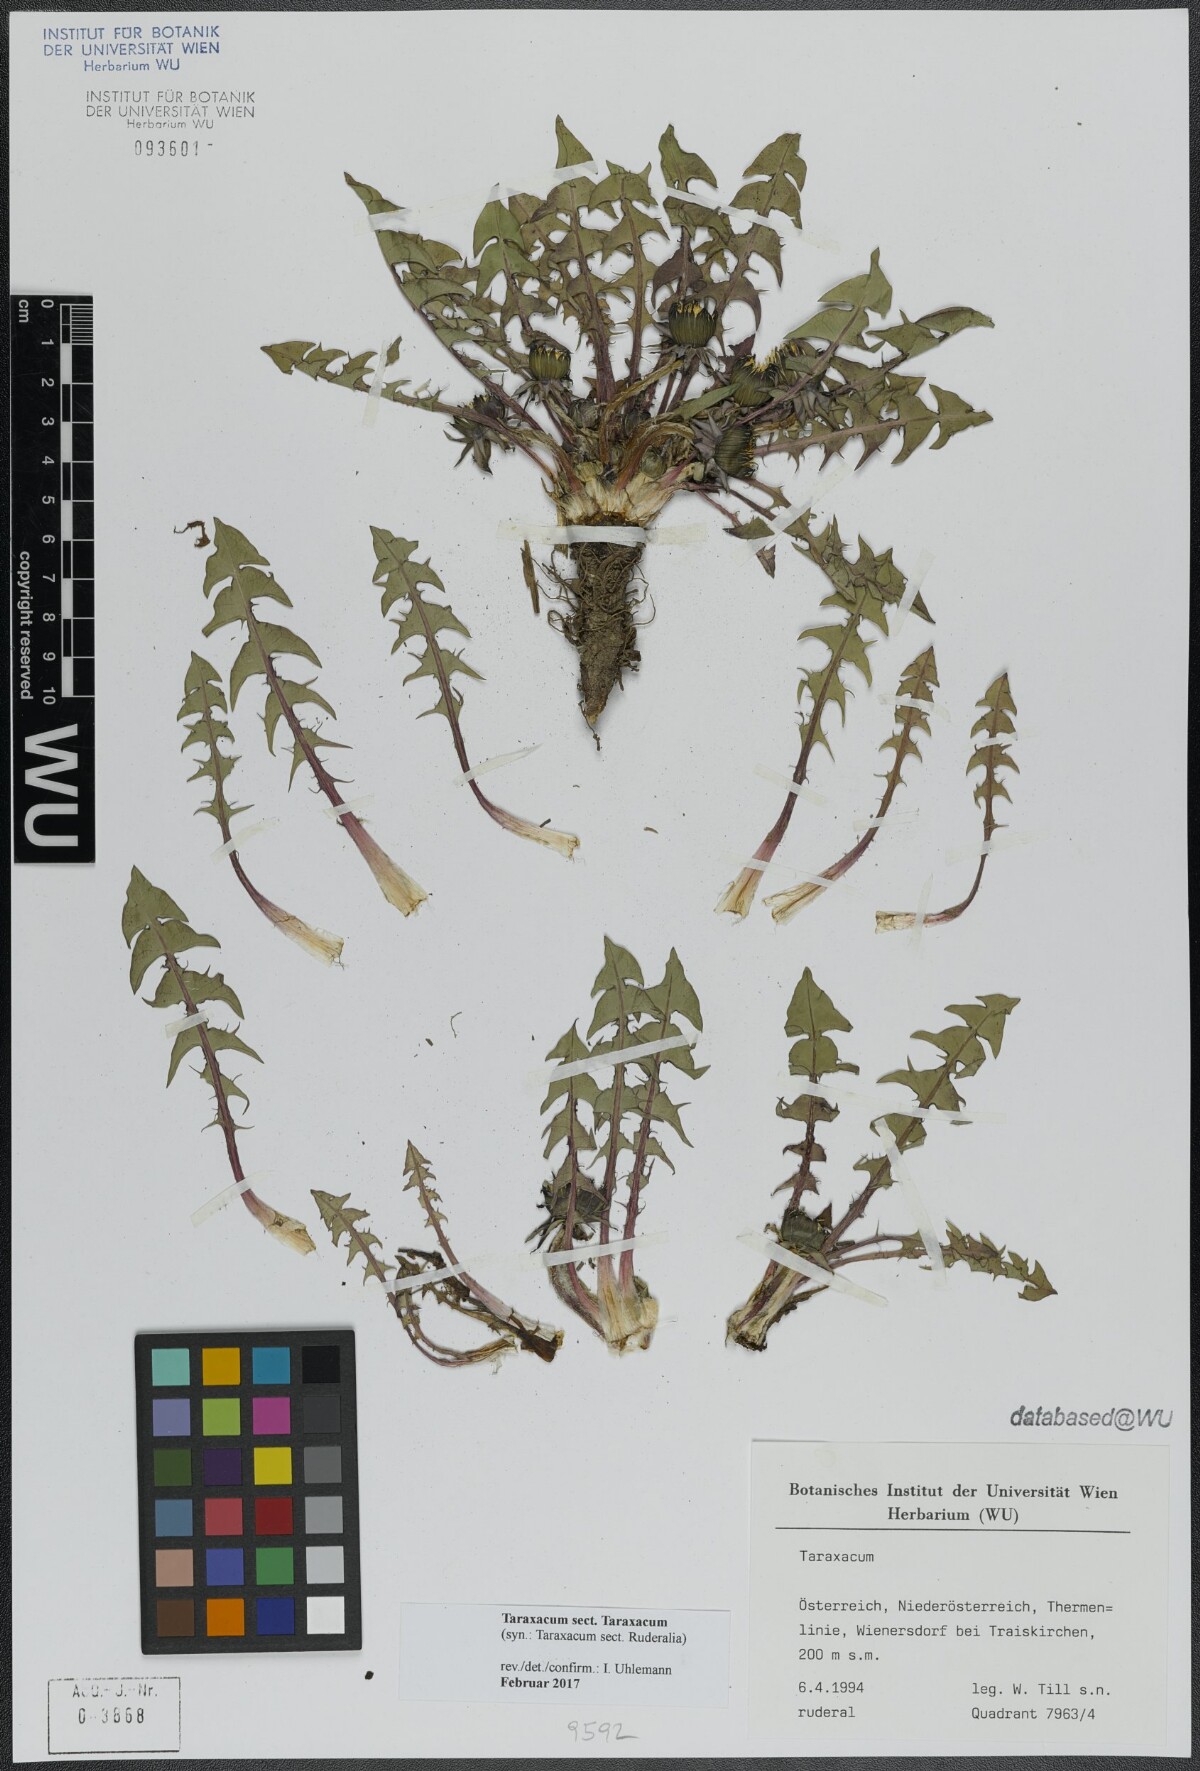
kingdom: Plantae
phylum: Tracheophyta
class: Magnoliopsida
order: Asterales
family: Asteraceae
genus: Taraxacum
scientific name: Taraxacum
